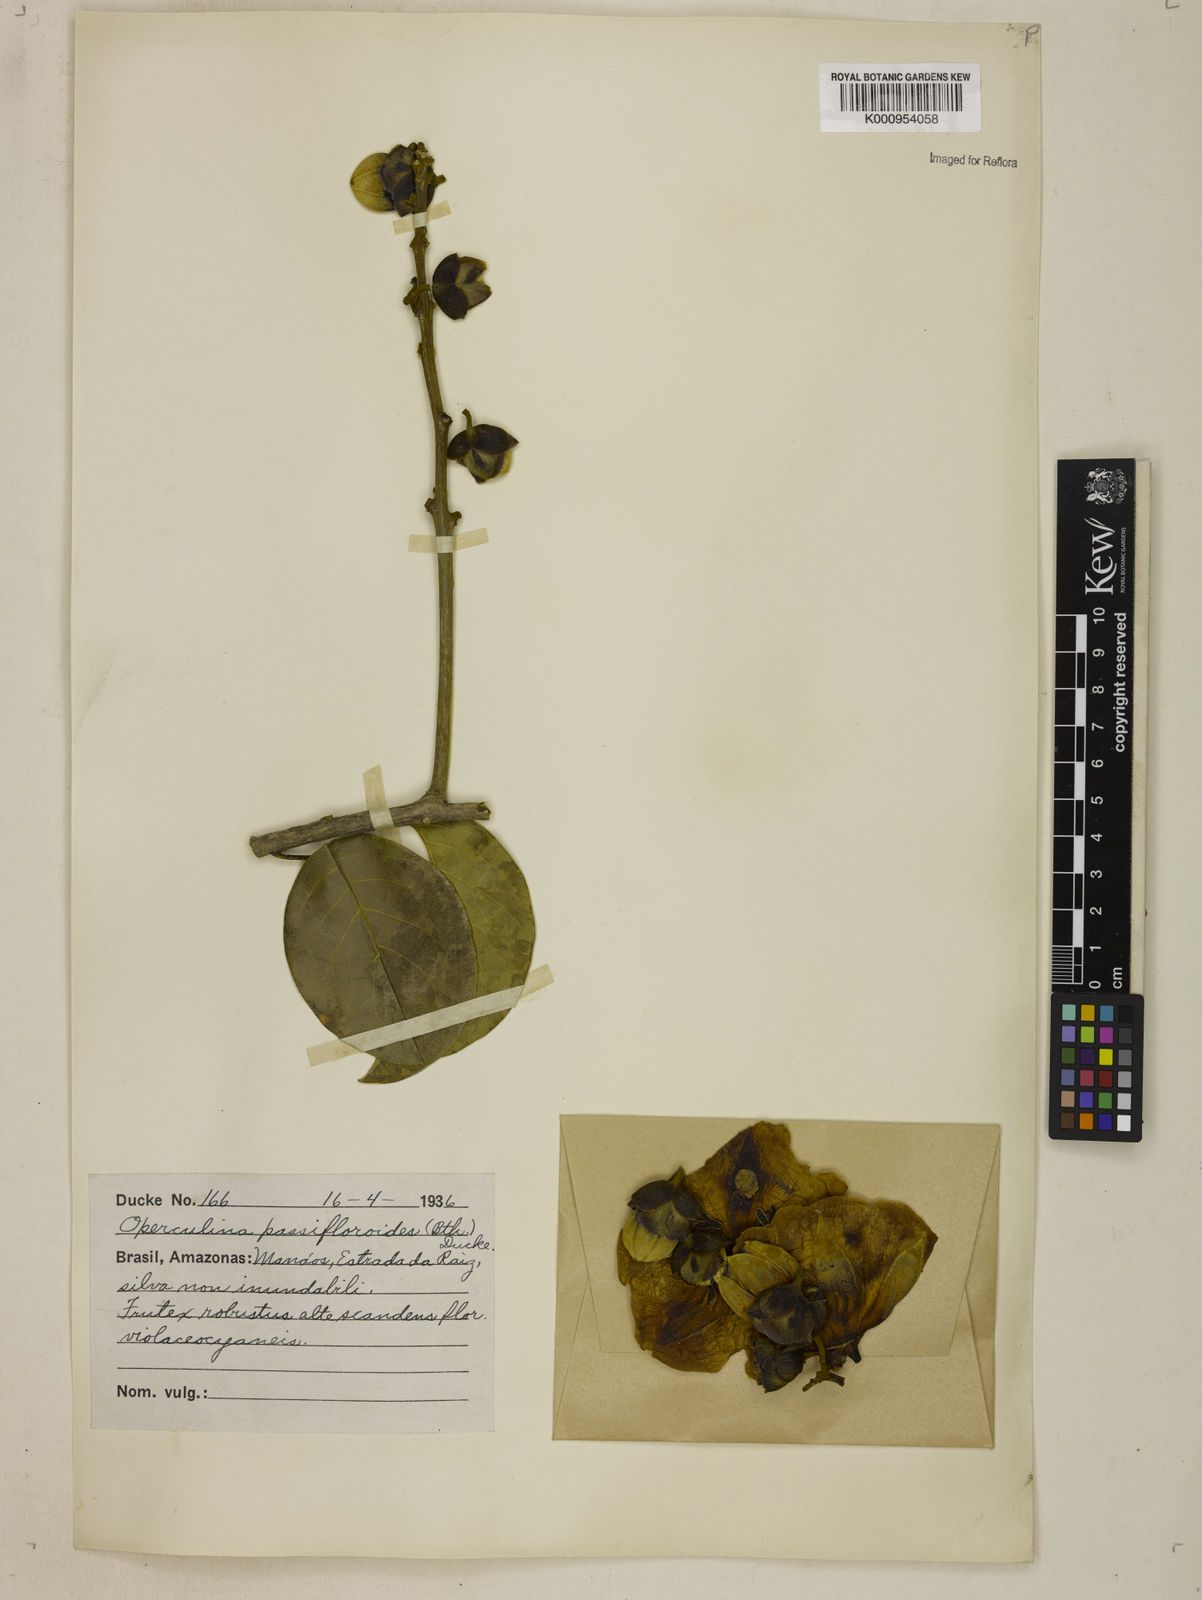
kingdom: Plantae
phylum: Tracheophyta
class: Magnoliopsida
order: Solanales
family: Convolvulaceae
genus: Maripa
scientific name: Maripa violacea
